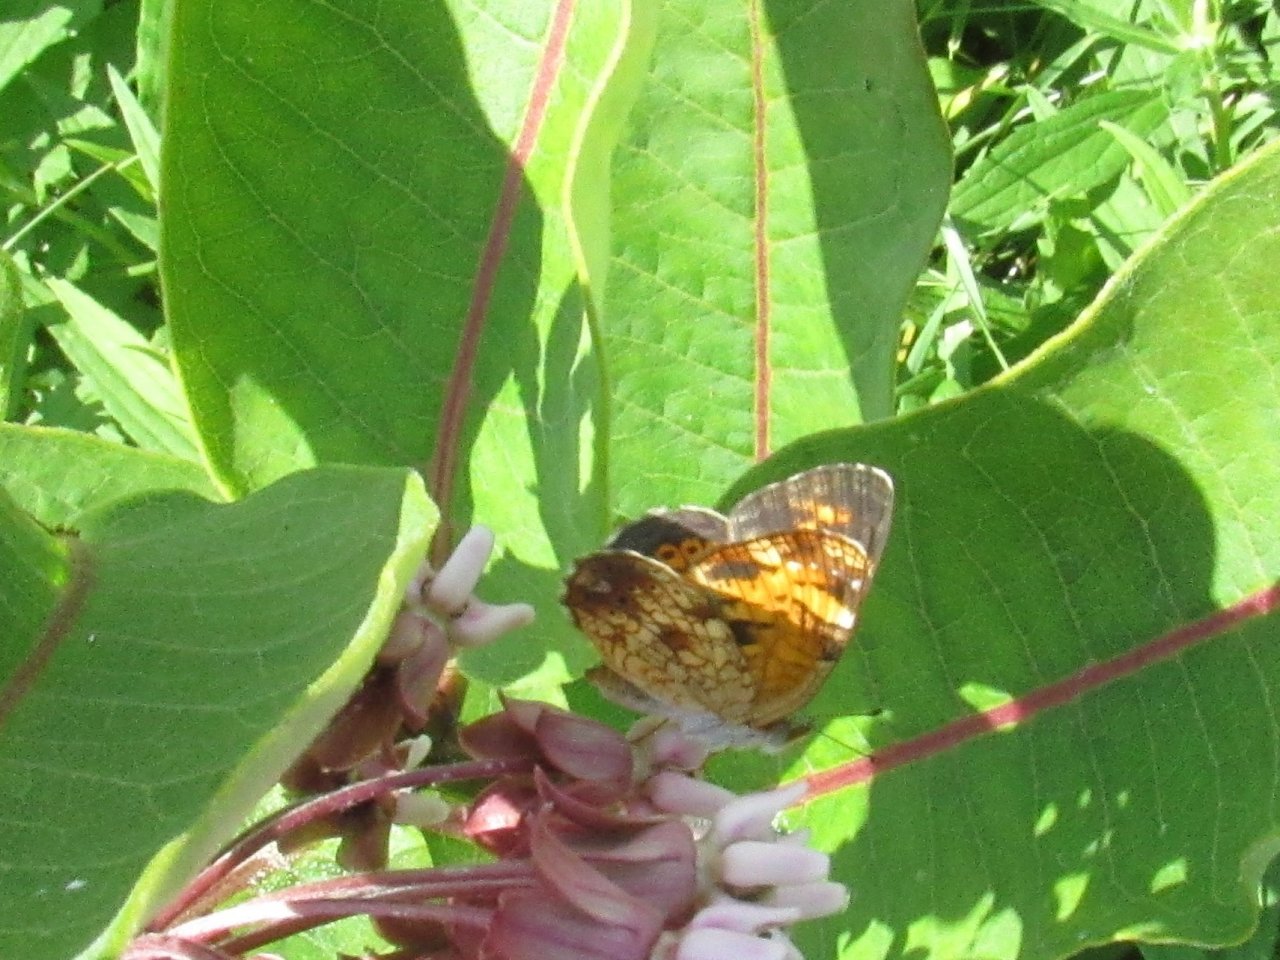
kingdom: Animalia
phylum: Arthropoda
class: Insecta
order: Lepidoptera
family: Nymphalidae
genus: Phyciodes
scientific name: Phyciodes tharos
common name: Pearl Crescent
